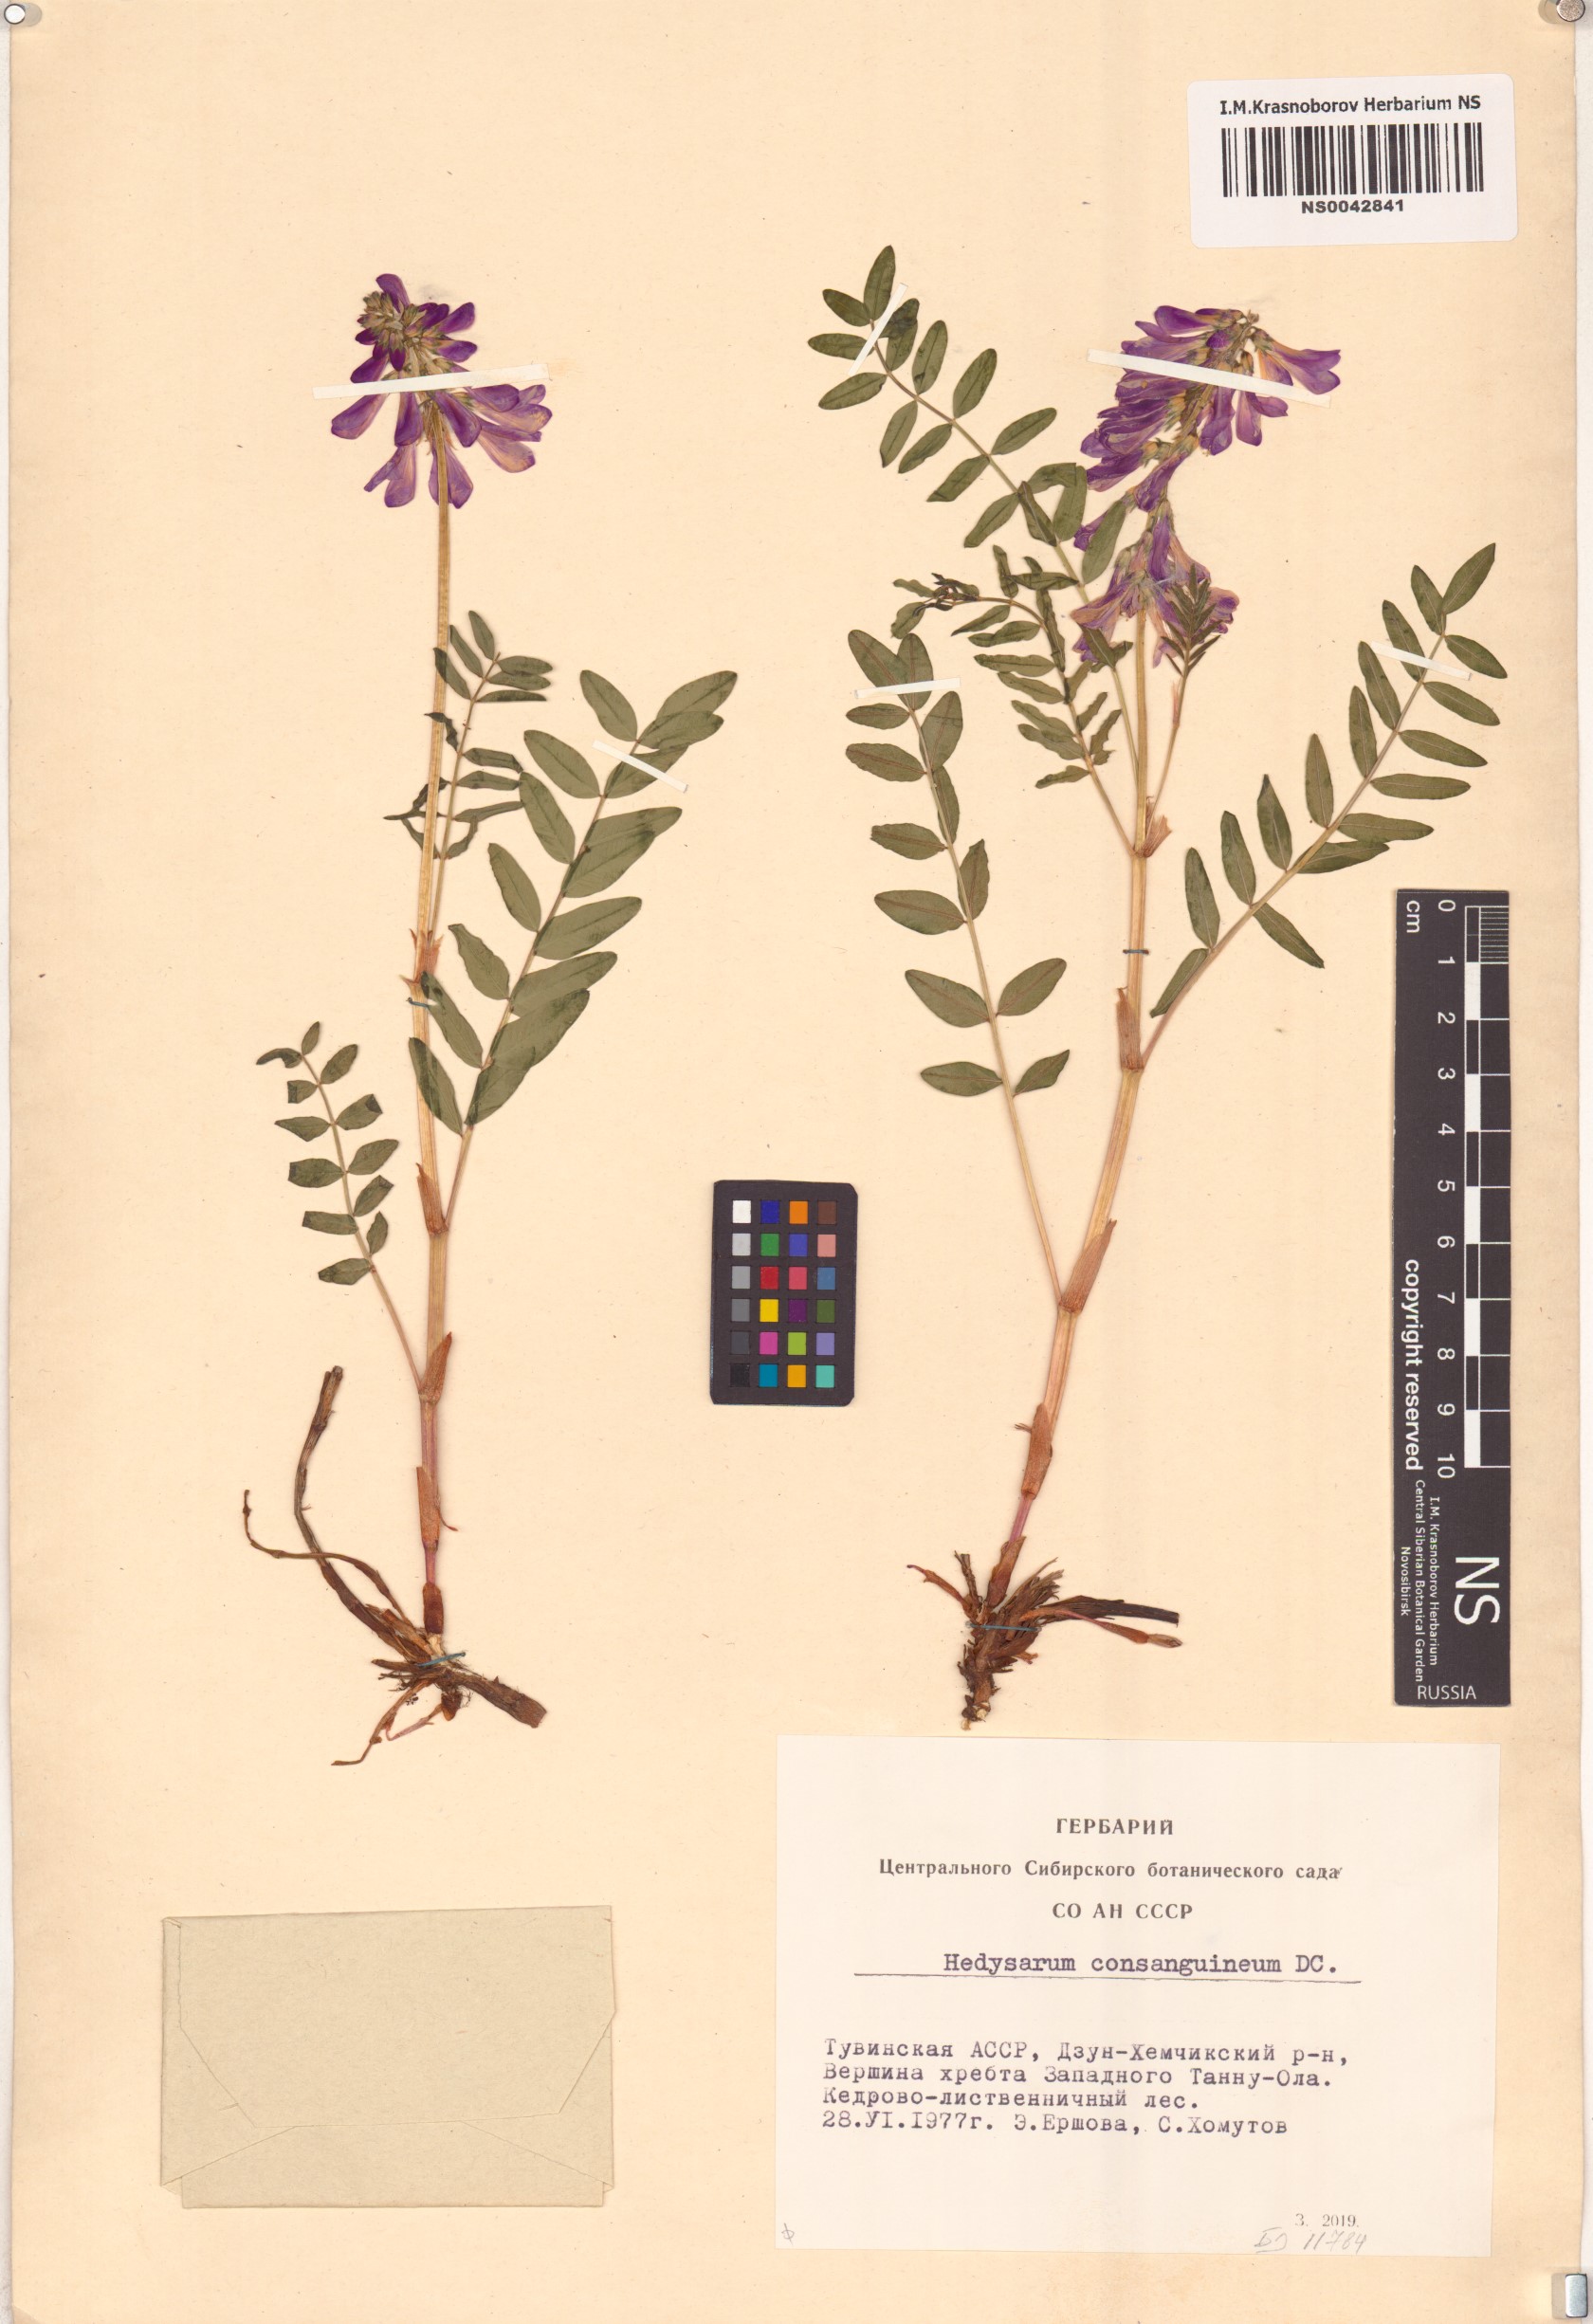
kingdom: Plantae
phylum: Tracheophyta
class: Magnoliopsida
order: Fabales
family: Fabaceae
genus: Hedysarum
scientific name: Hedysarum consanguineum
